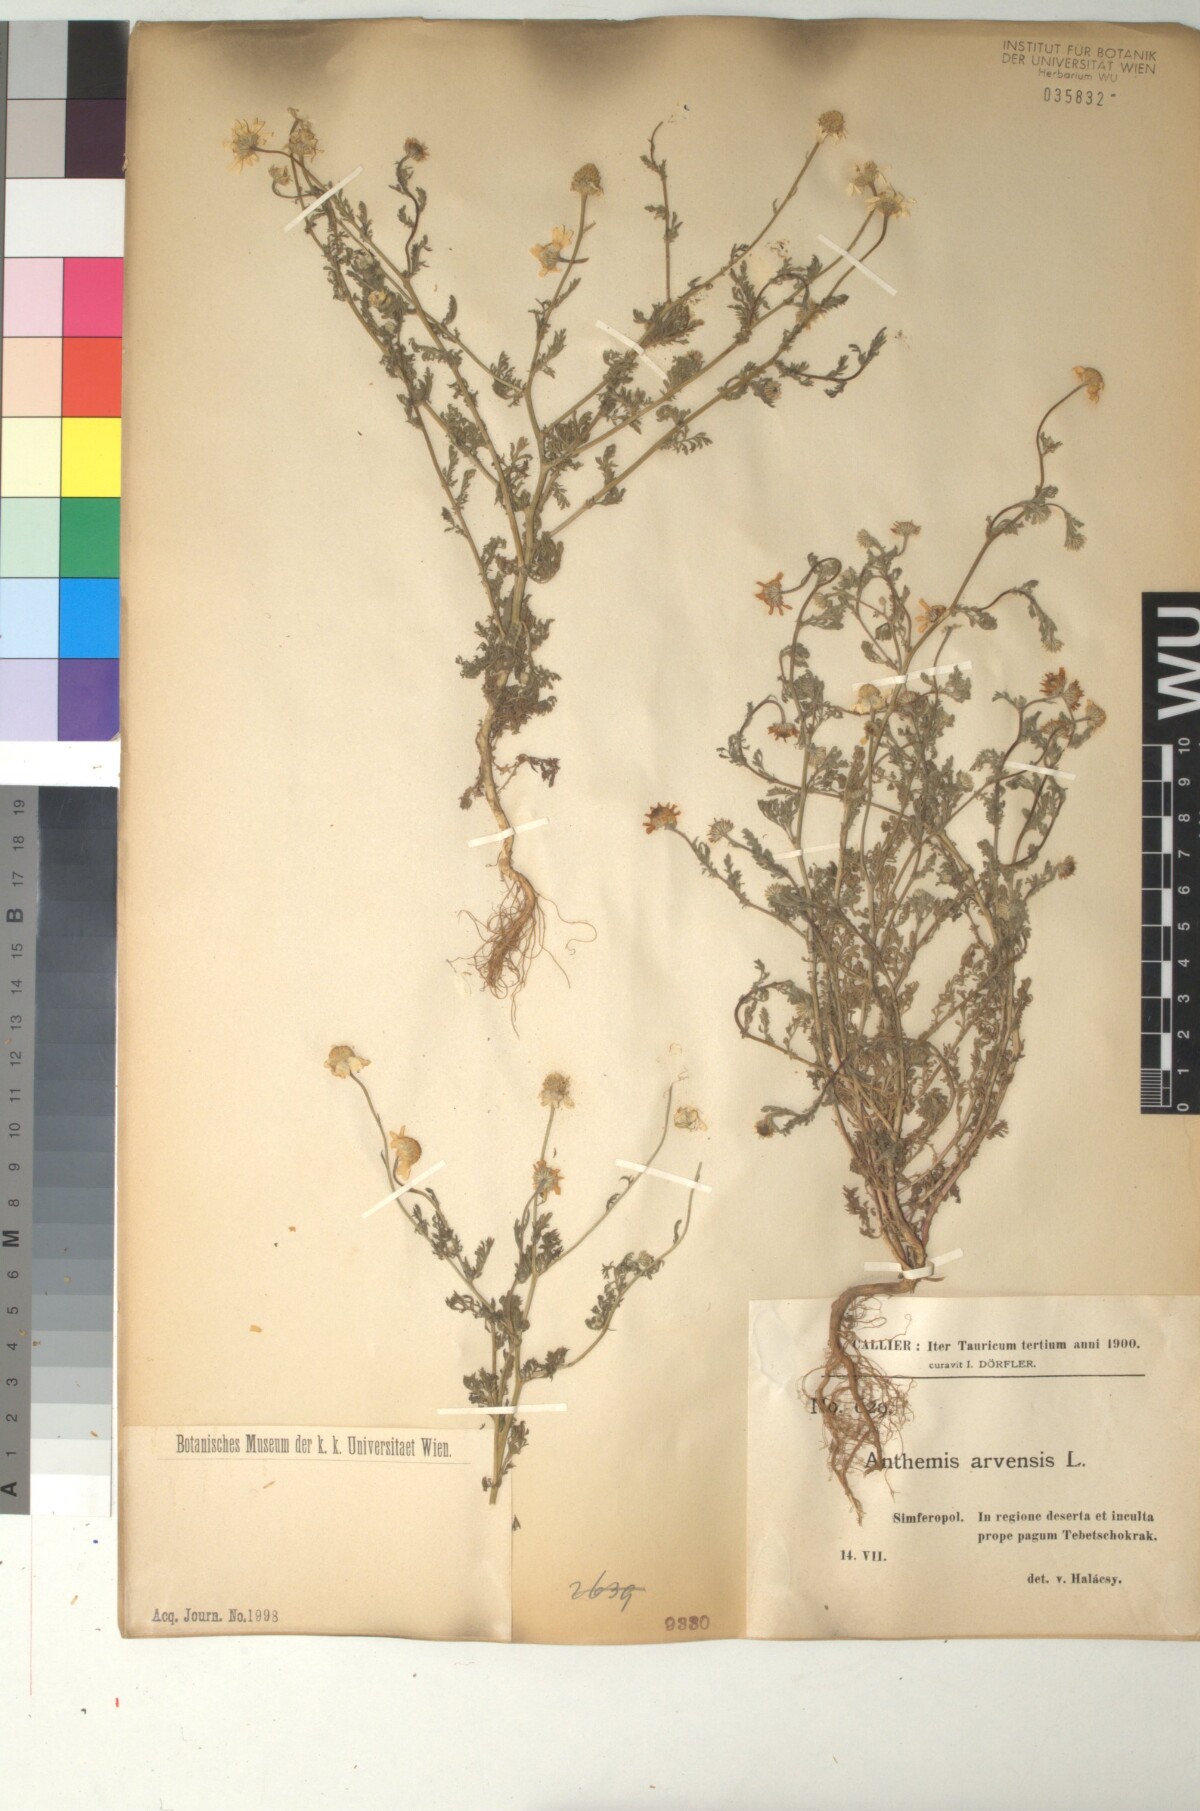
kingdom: Plantae
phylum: Tracheophyta
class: Magnoliopsida
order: Asterales
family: Asteraceae
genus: Anthemis
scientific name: Anthemis arvensis
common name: Corn chamomile
